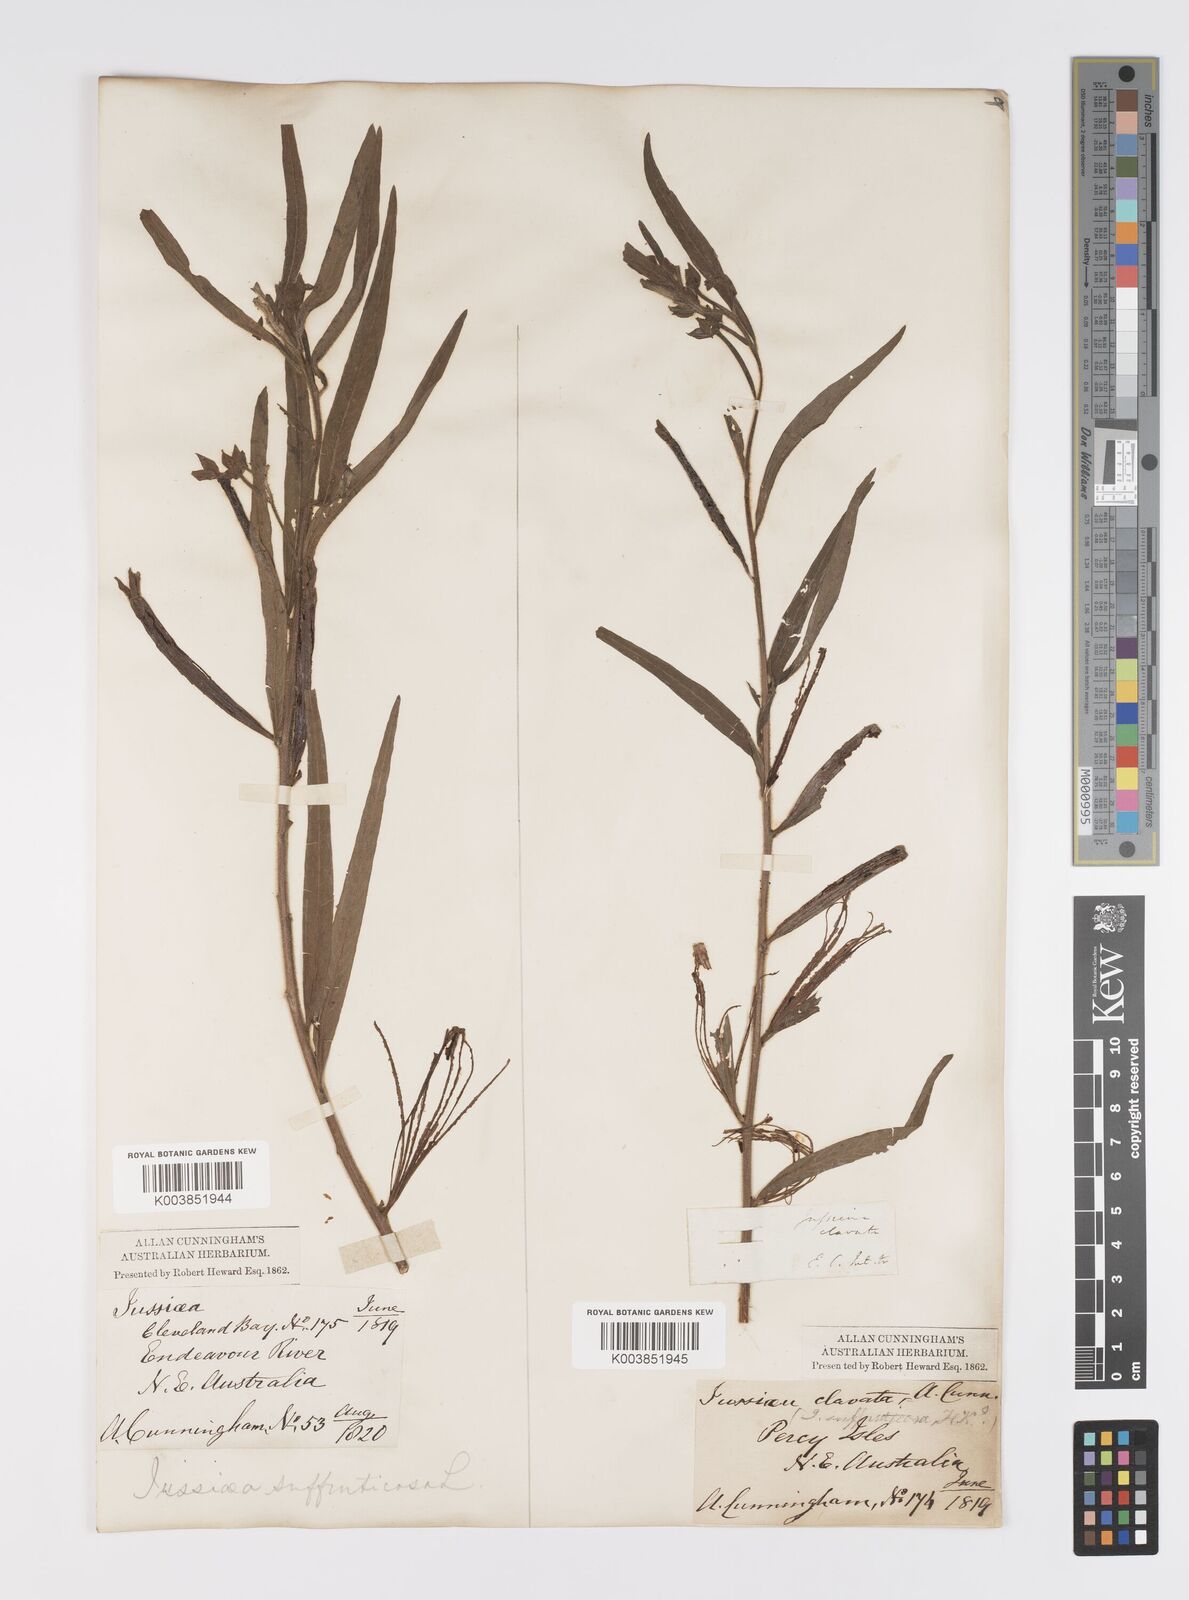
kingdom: Plantae
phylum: Tracheophyta
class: Magnoliopsida
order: Myrtales
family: Onagraceae
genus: Ludwigia
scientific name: Ludwigia octovalvis
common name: Water-primrose
